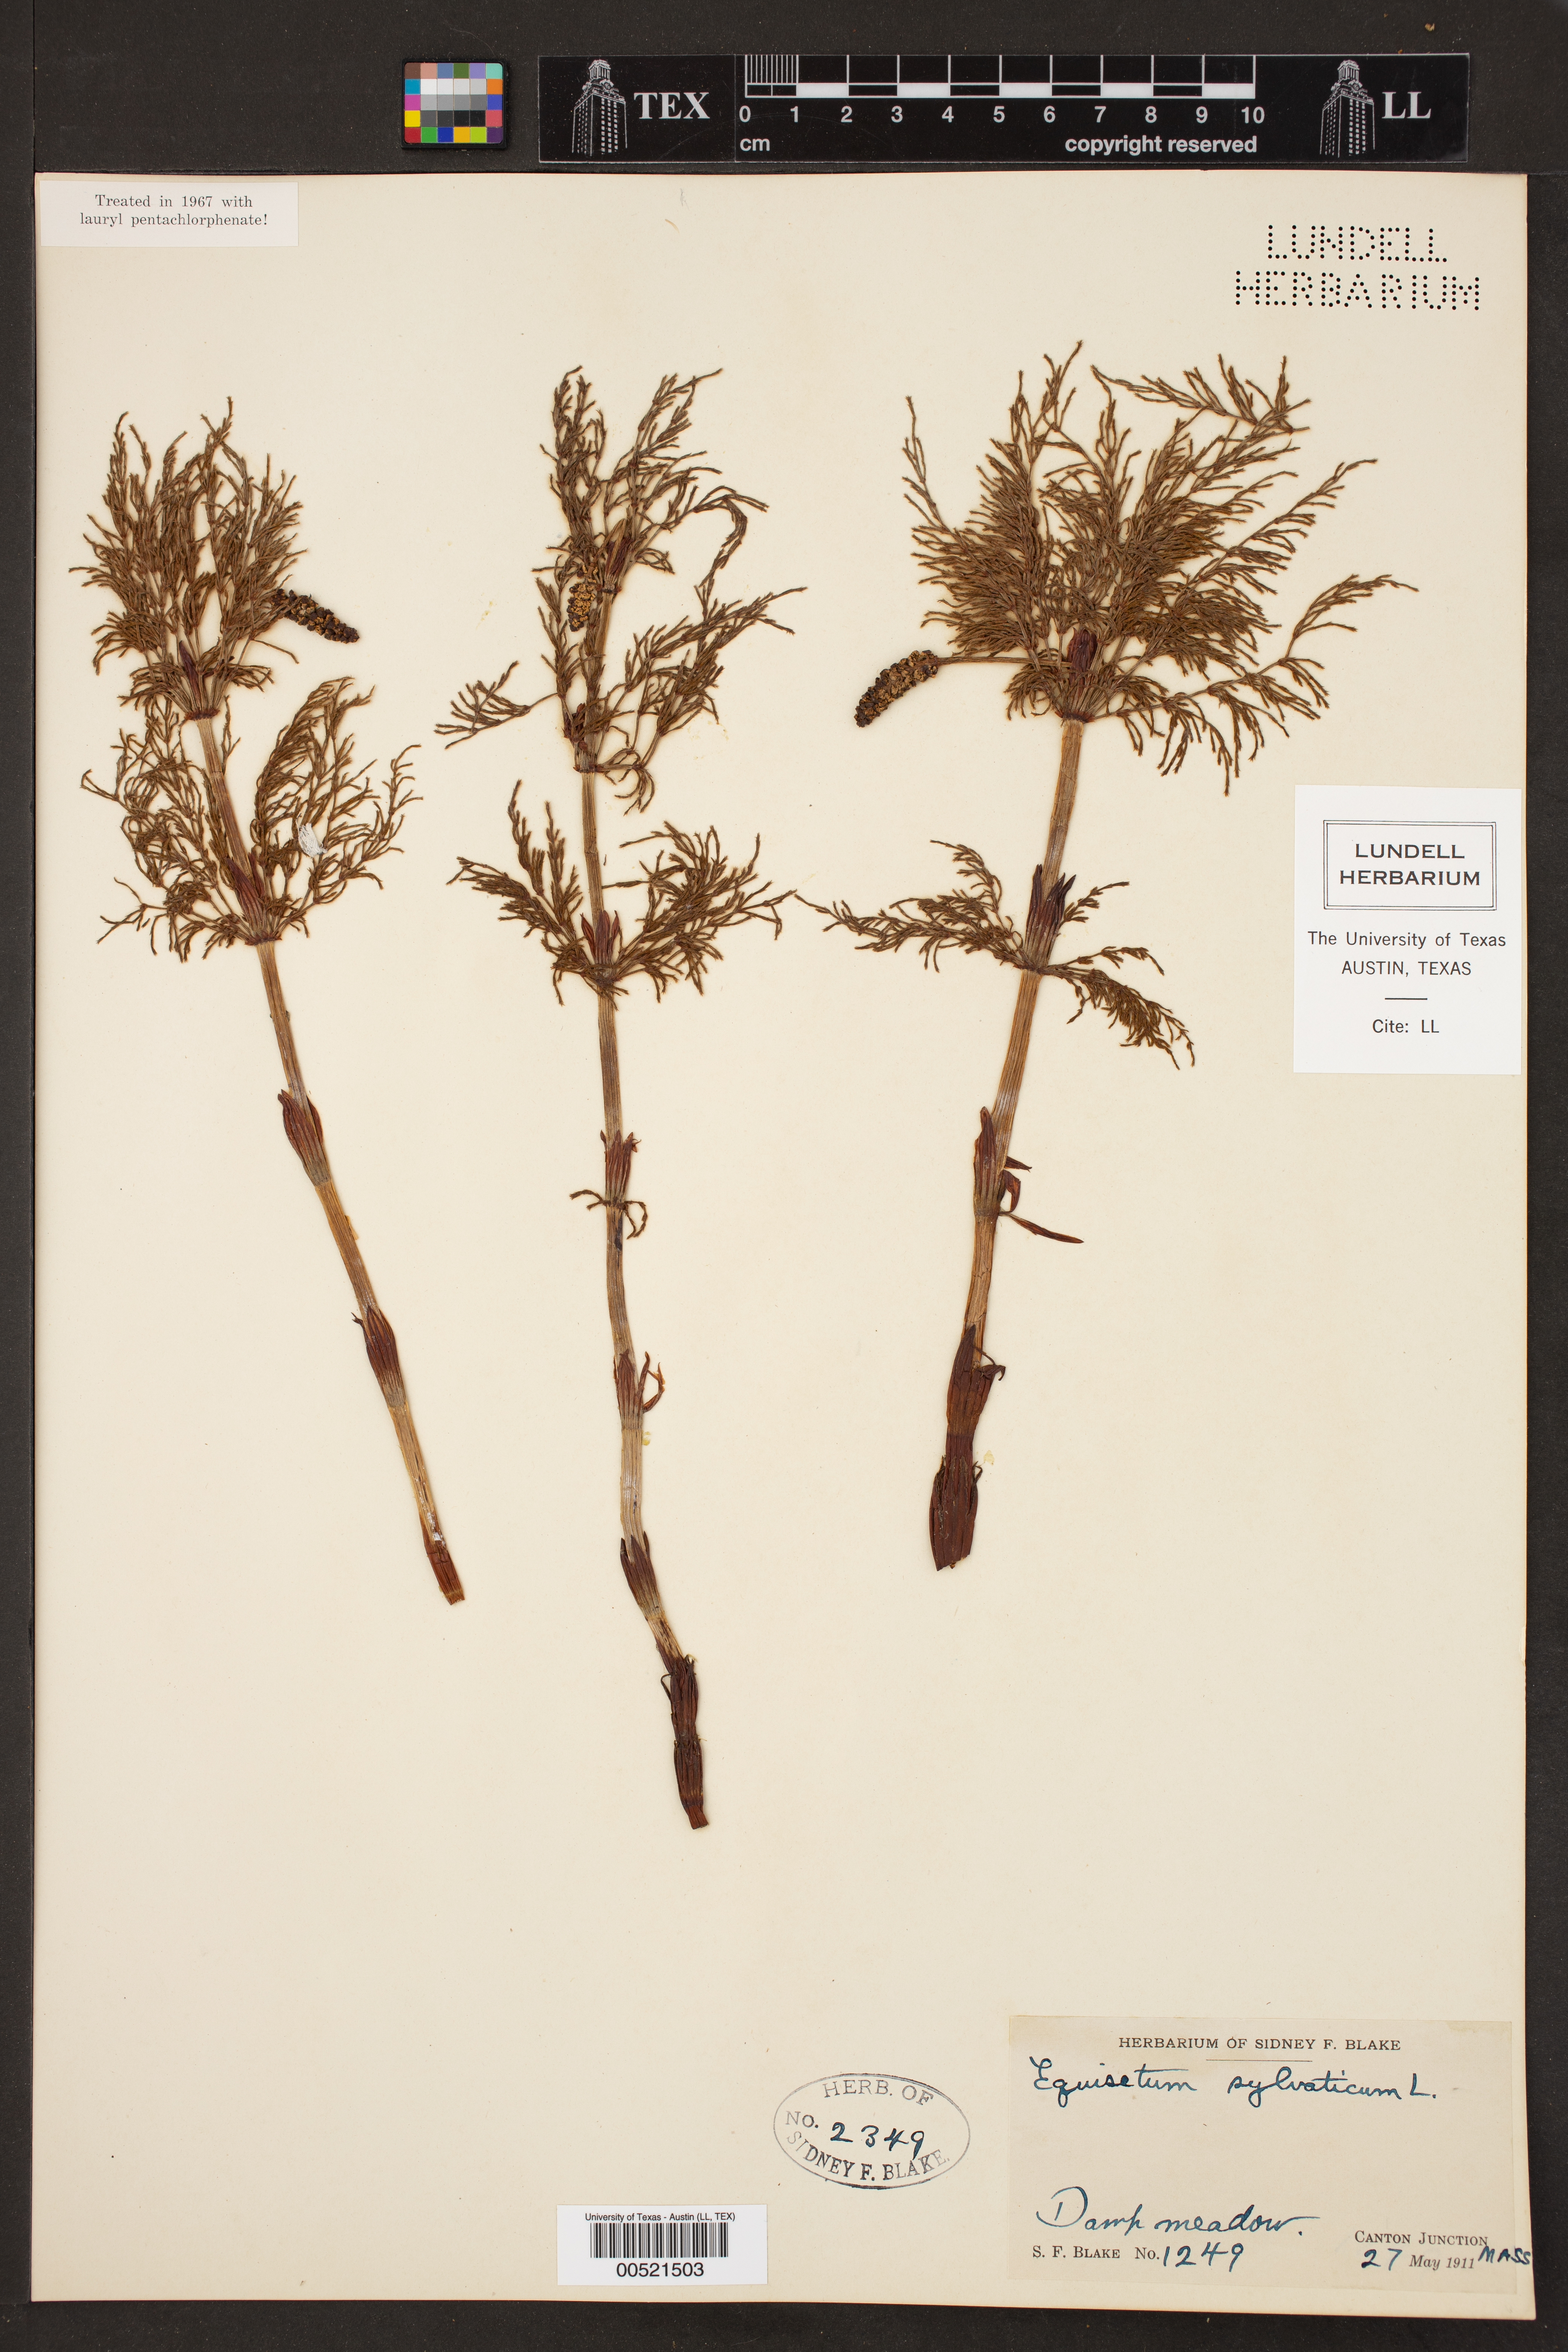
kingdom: Plantae
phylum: Tracheophyta
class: Polypodiopsida
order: Equisetales
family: Equisetaceae
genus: Equisetum
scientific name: Equisetum sylvaticum
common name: Wood horsetail
